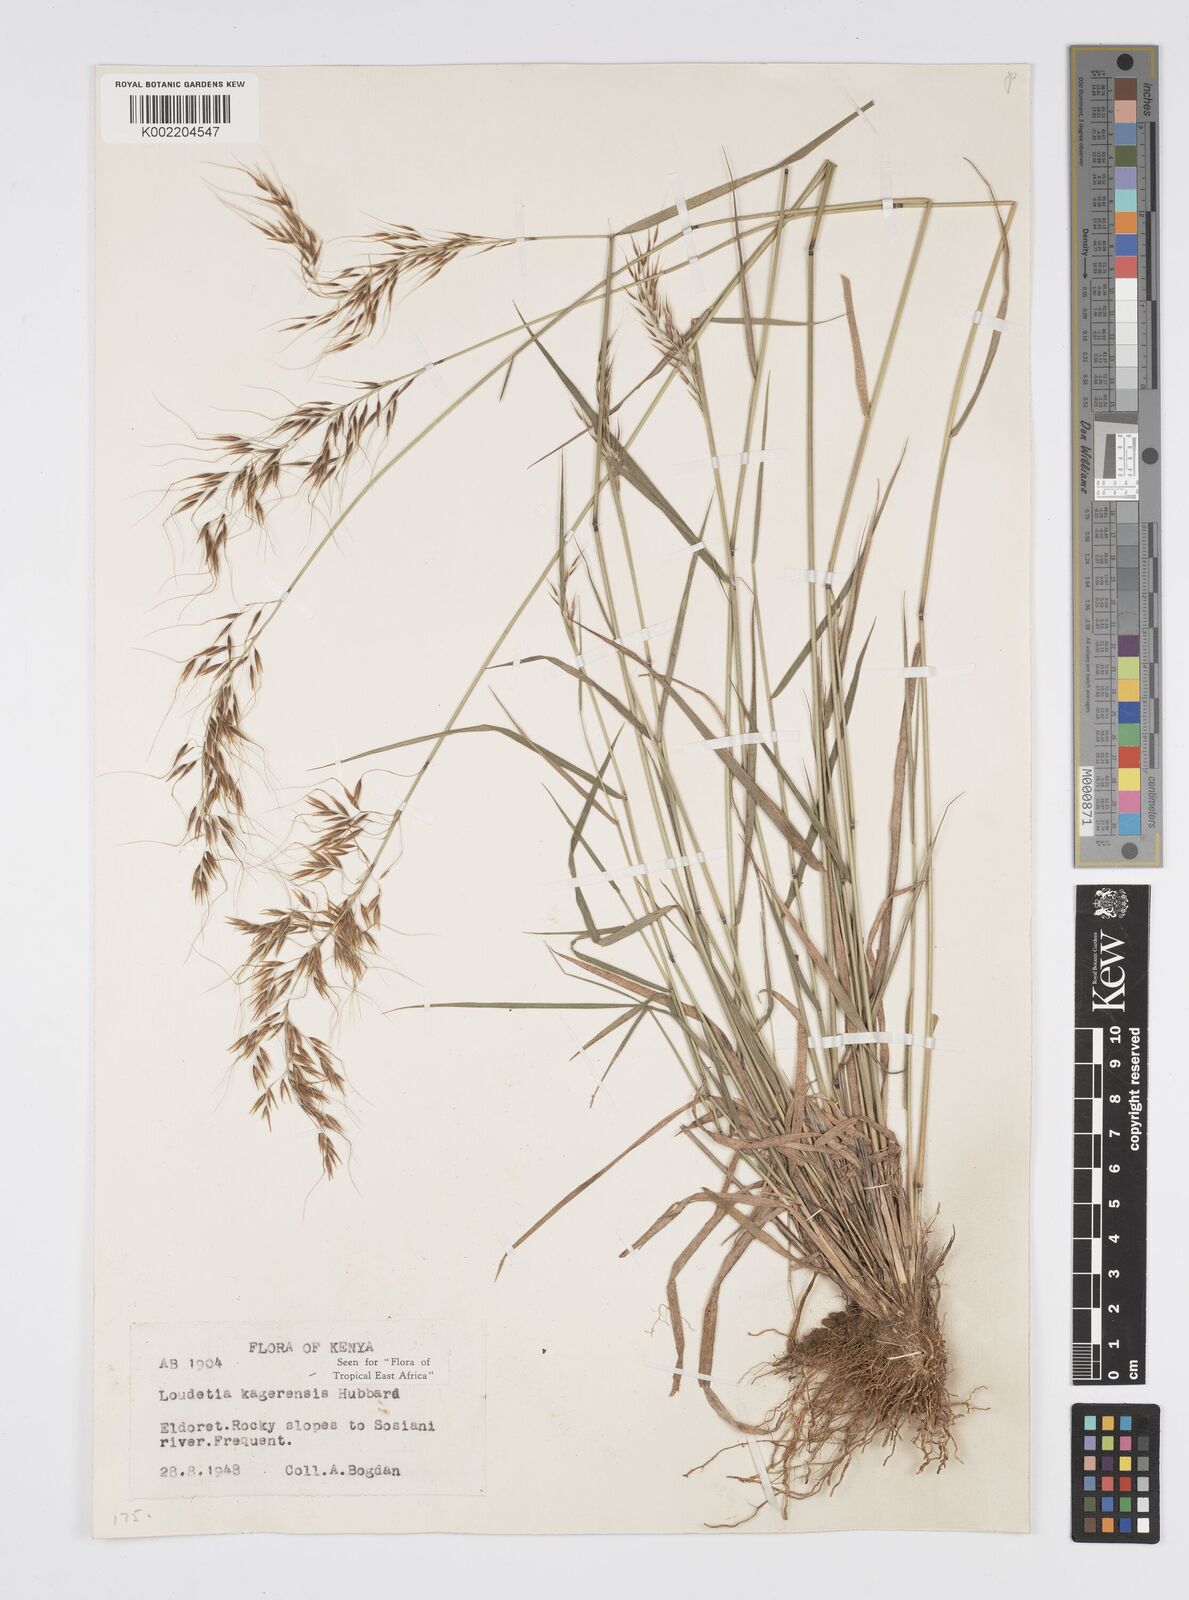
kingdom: Plantae
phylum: Tracheophyta
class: Liliopsida
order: Poales
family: Poaceae
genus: Loudetia
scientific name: Loudetia kagerensis
